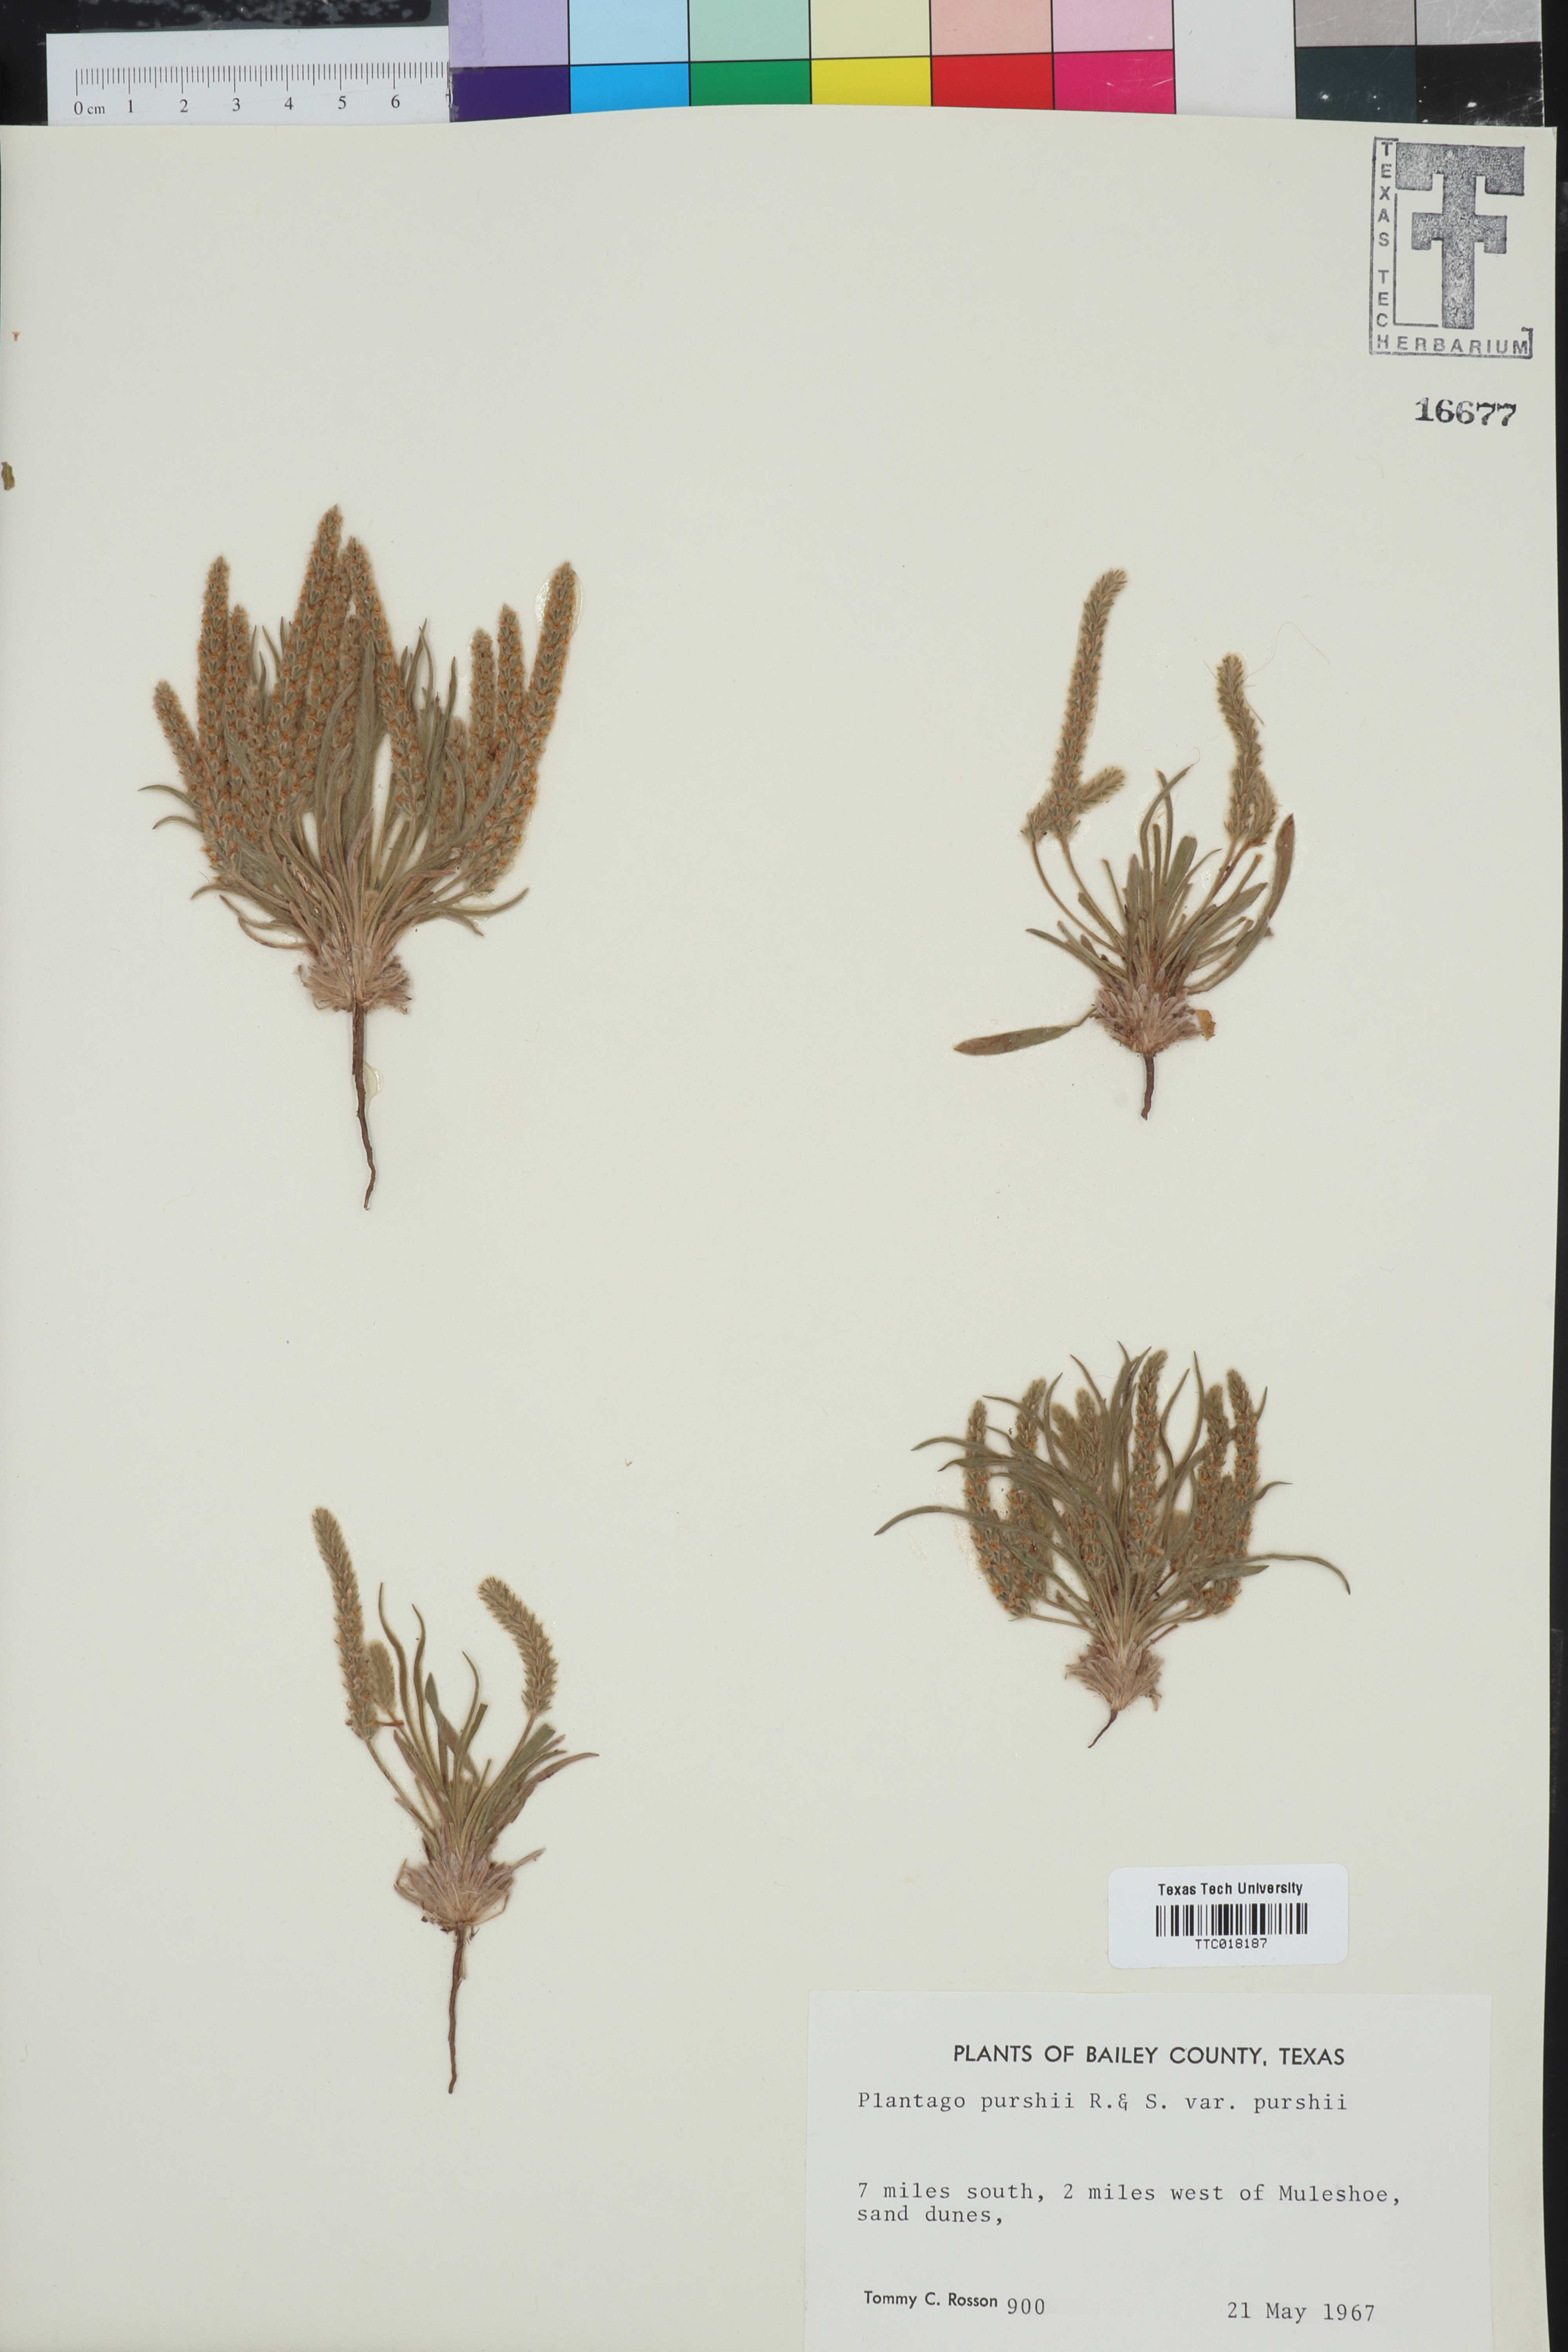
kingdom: Plantae
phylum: Tracheophyta
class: Magnoliopsida
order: Lamiales
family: Plantaginaceae
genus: Plantago
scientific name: Plantago patagonica
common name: Patagonia indian-wheat
